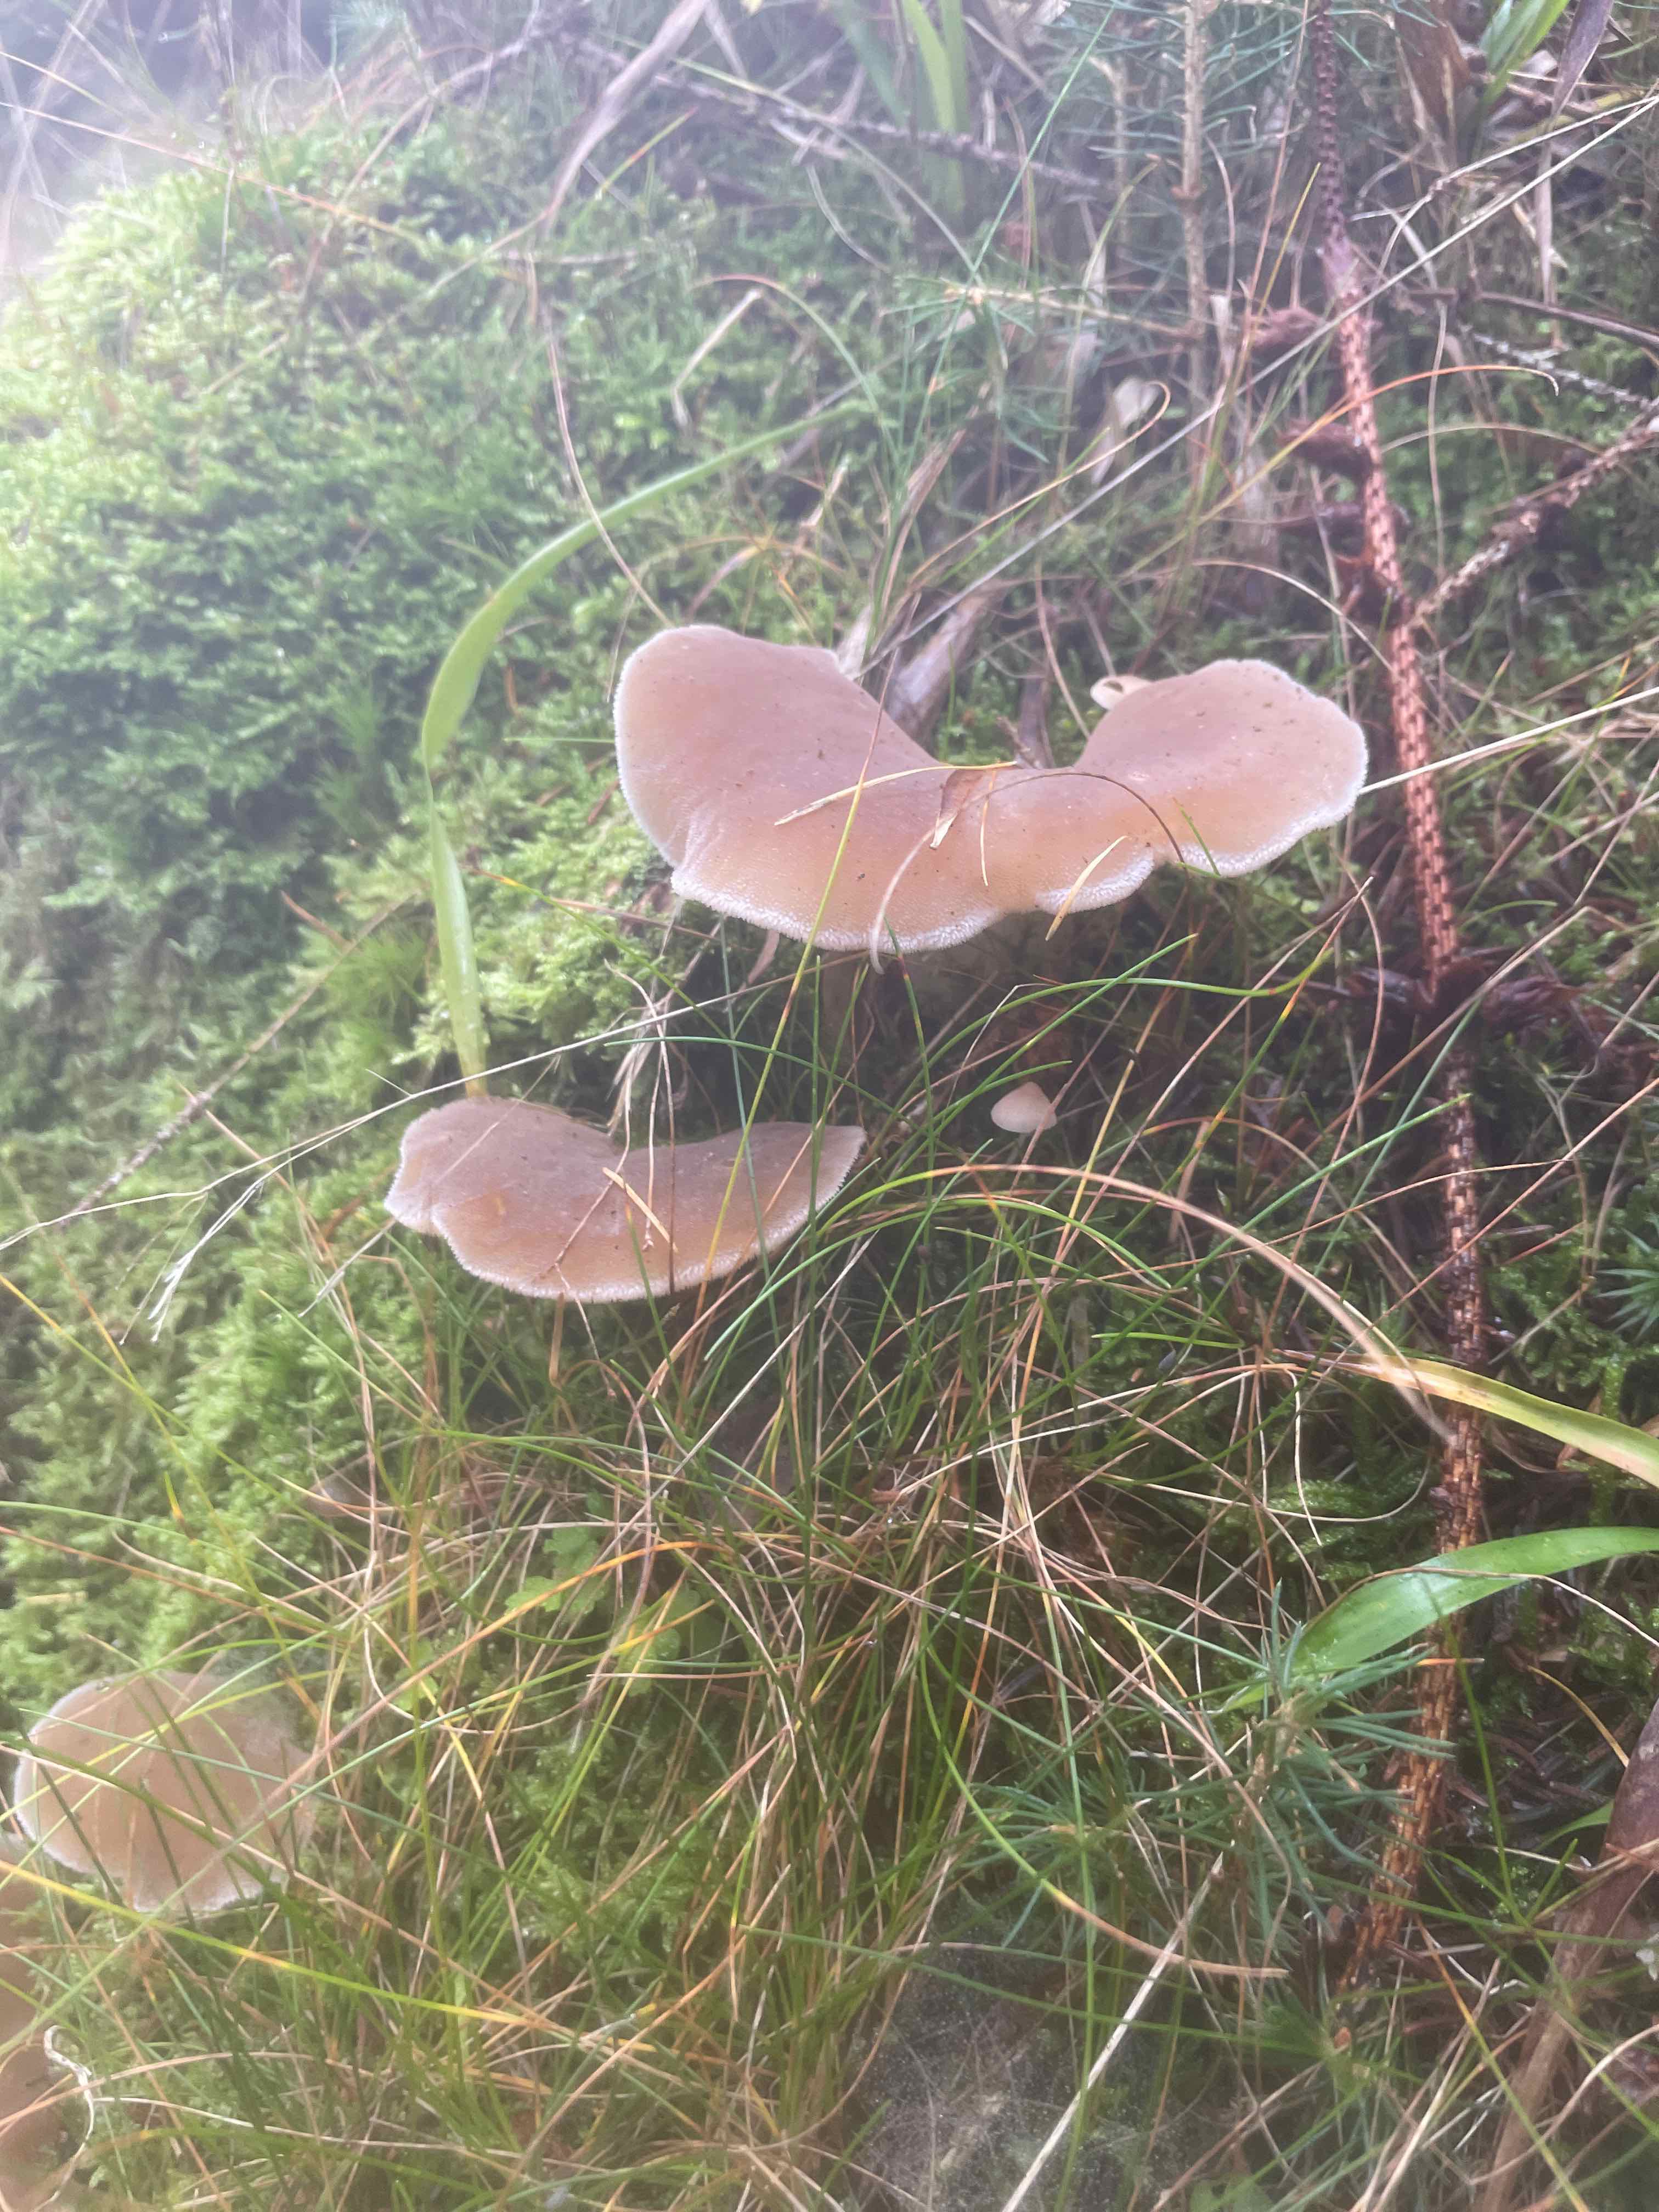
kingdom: Fungi
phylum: Basidiomycota
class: Agaricomycetes
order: Auriculariales
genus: Pseudohydnum
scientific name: Pseudohydnum gelatinosum
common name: bævretand
